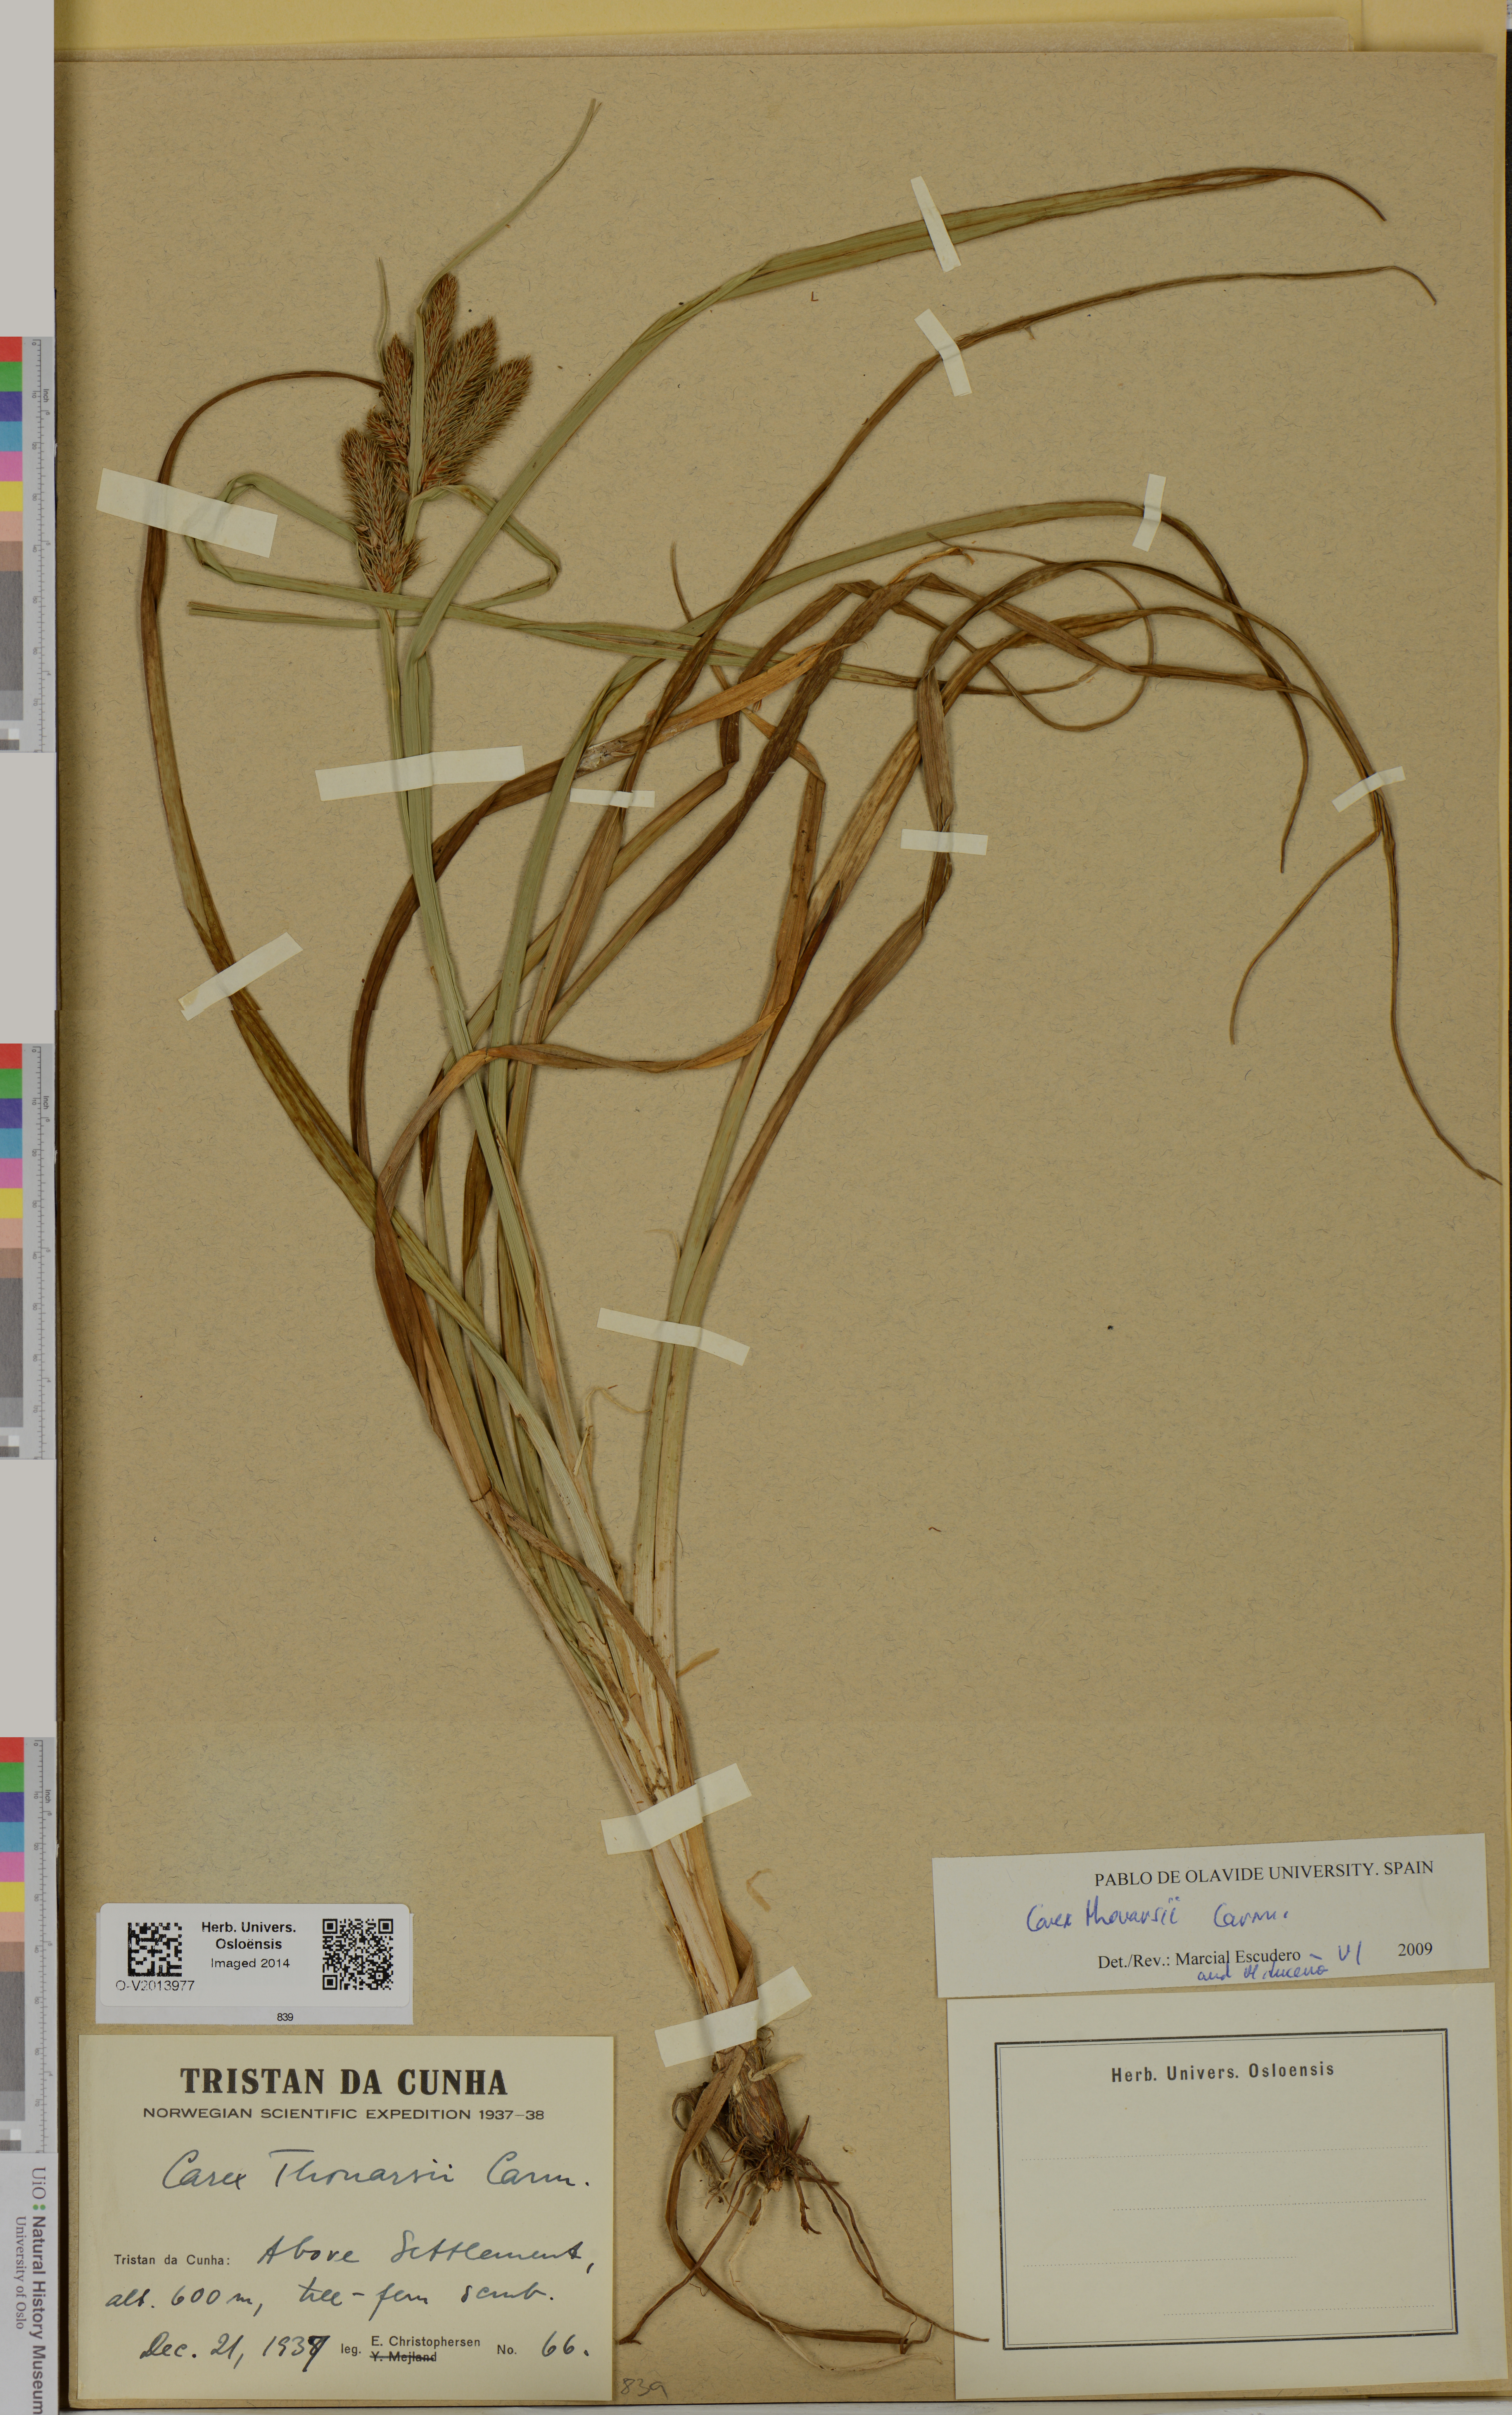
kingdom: Plantae
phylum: Tracheophyta
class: Liliopsida
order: Poales
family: Cyperaceae
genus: Carex
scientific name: Carex thouarsii
